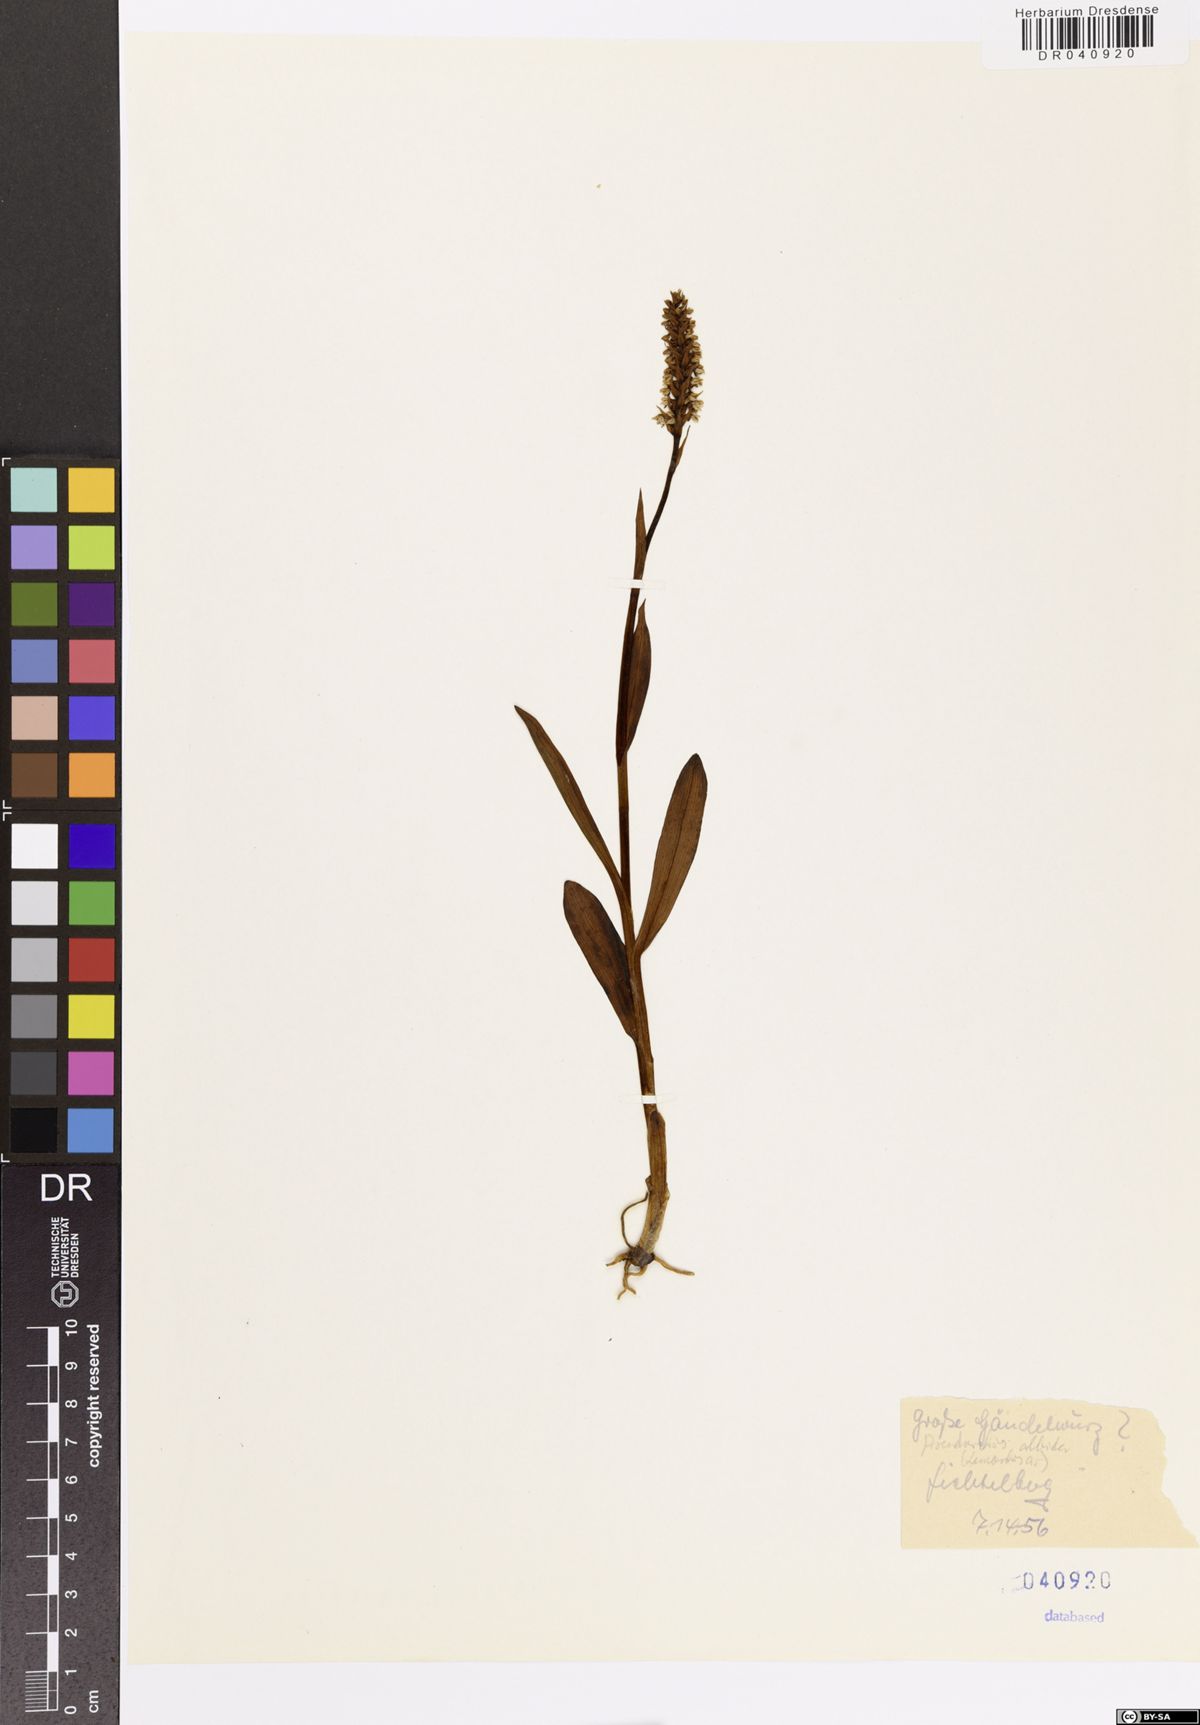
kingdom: Plantae
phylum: Tracheophyta
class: Liliopsida
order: Asparagales
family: Orchidaceae
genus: Pseudorchis
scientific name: Pseudorchis albida
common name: Small-white orchid
